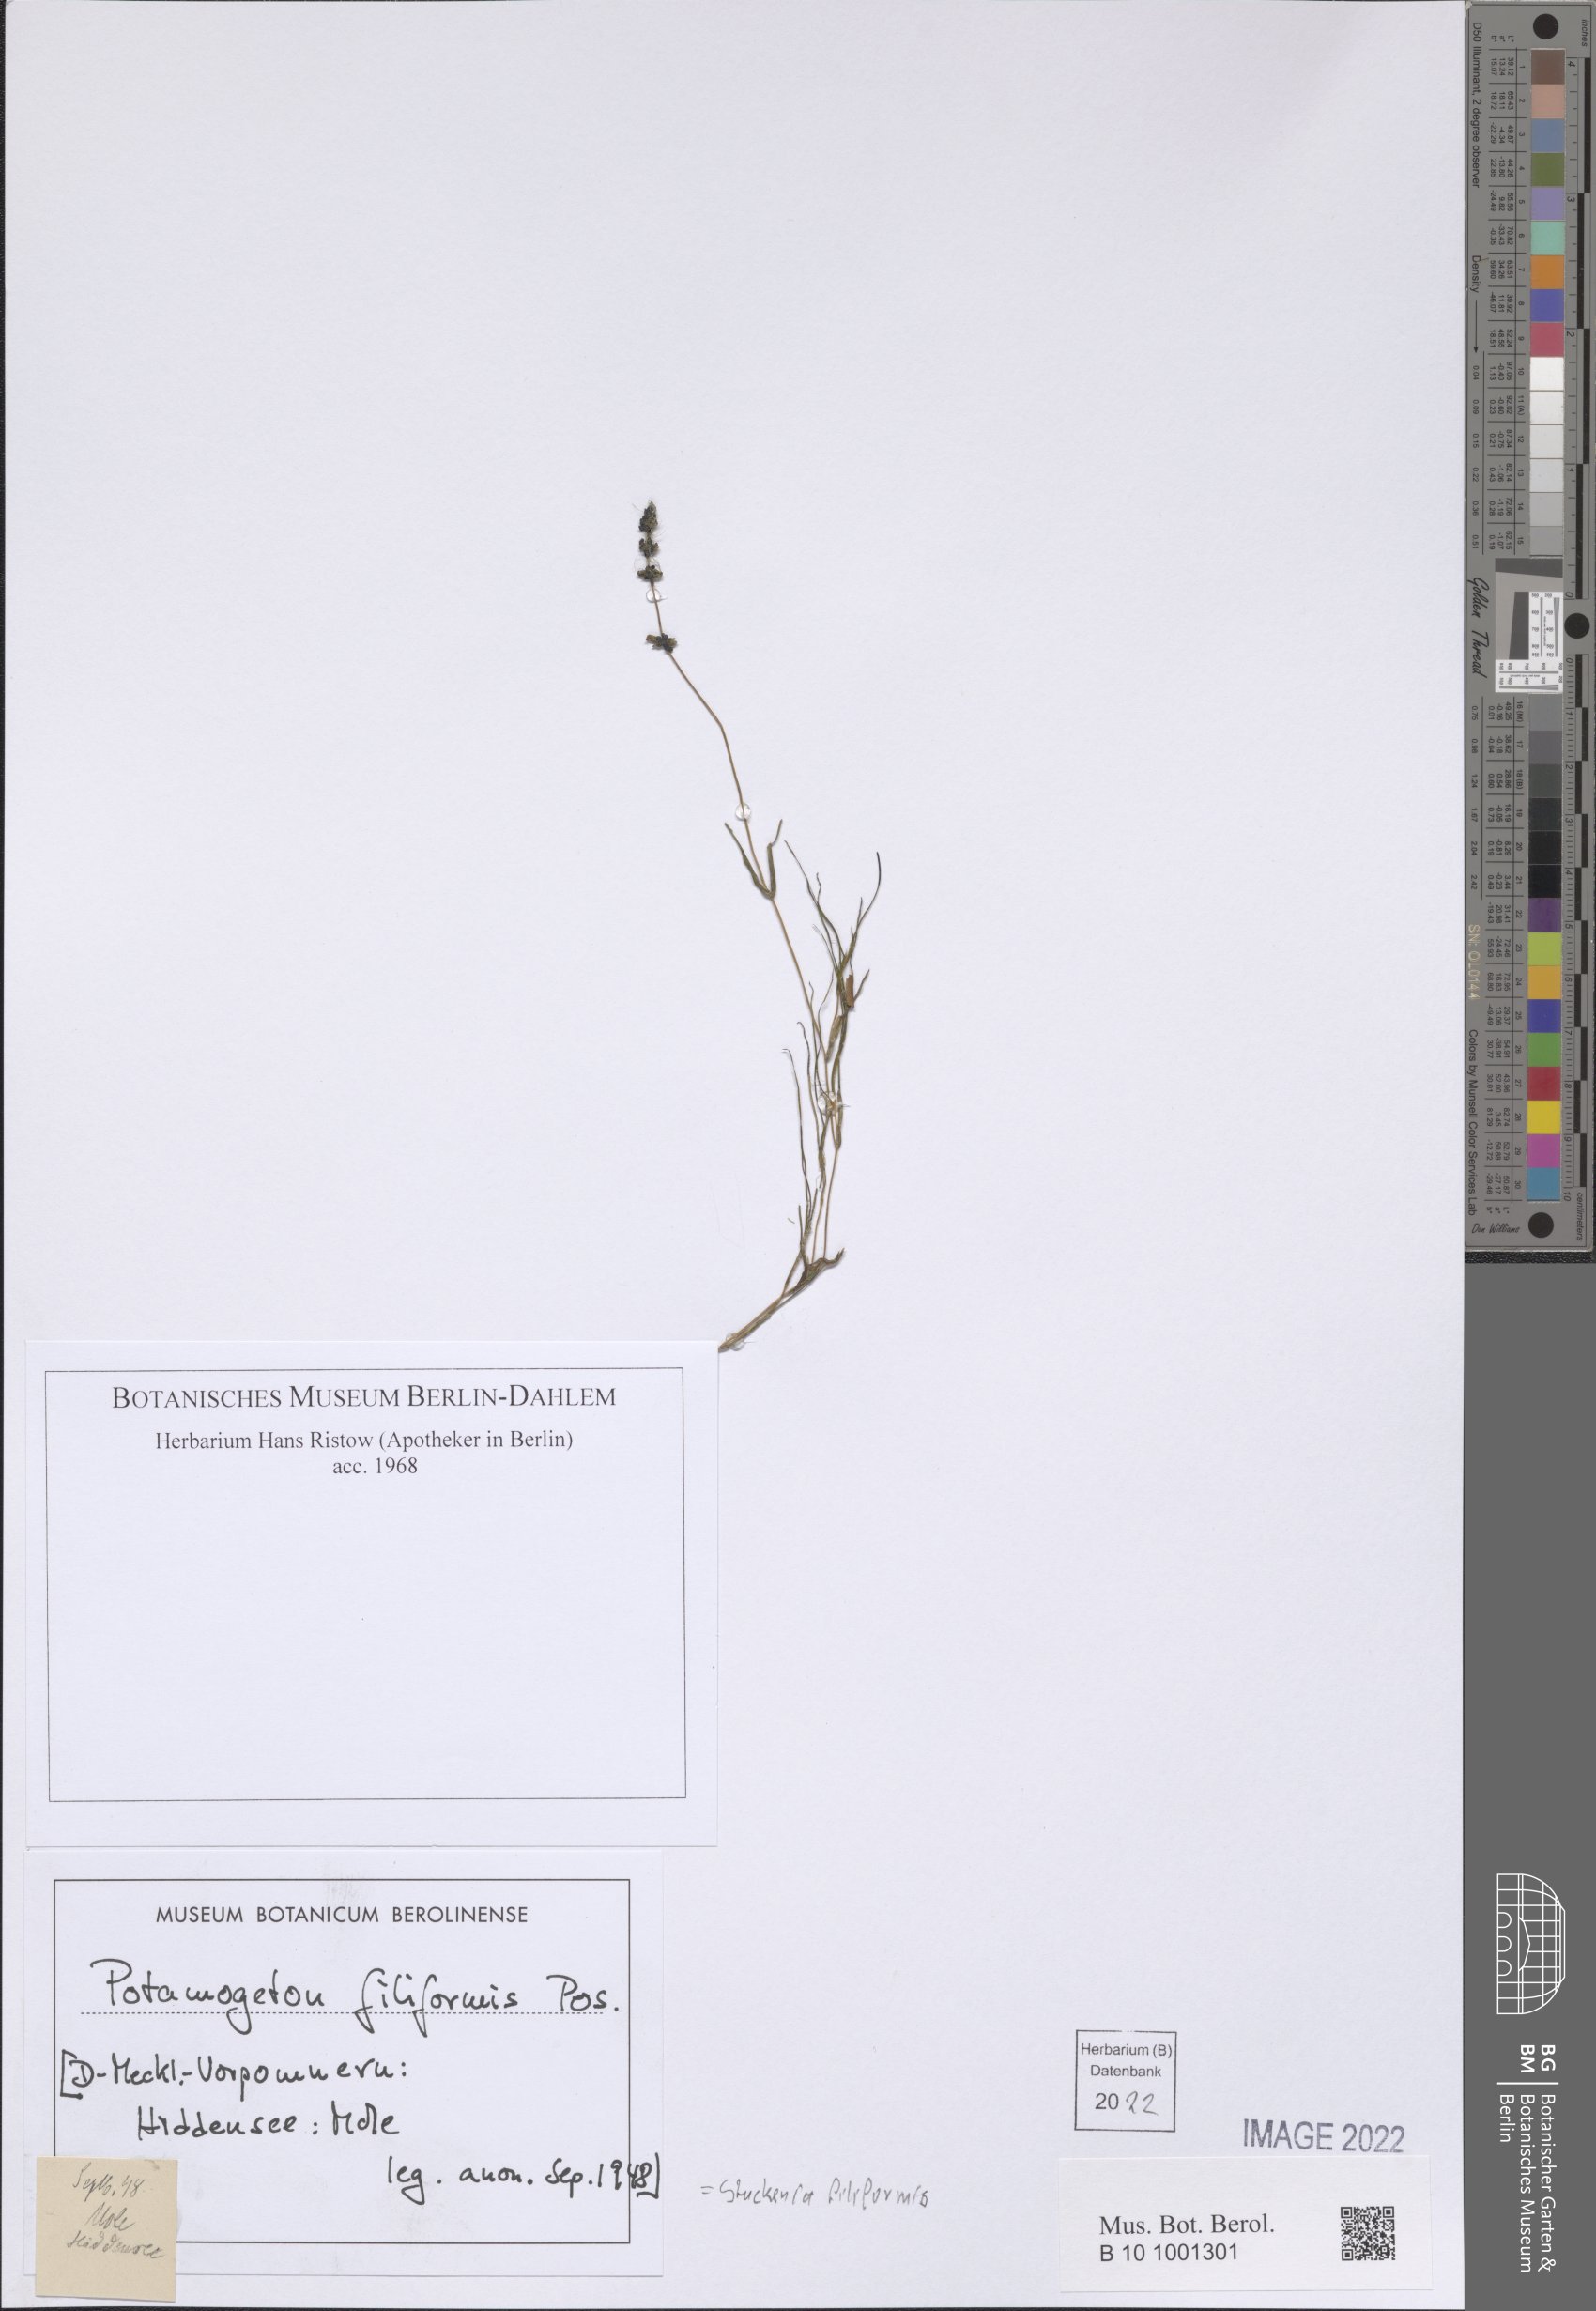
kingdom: Plantae
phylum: Tracheophyta
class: Liliopsida
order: Alismatales
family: Potamogetonaceae
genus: Stuckenia
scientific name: Stuckenia filiformis
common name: Alpine thread-leaved pondweed
